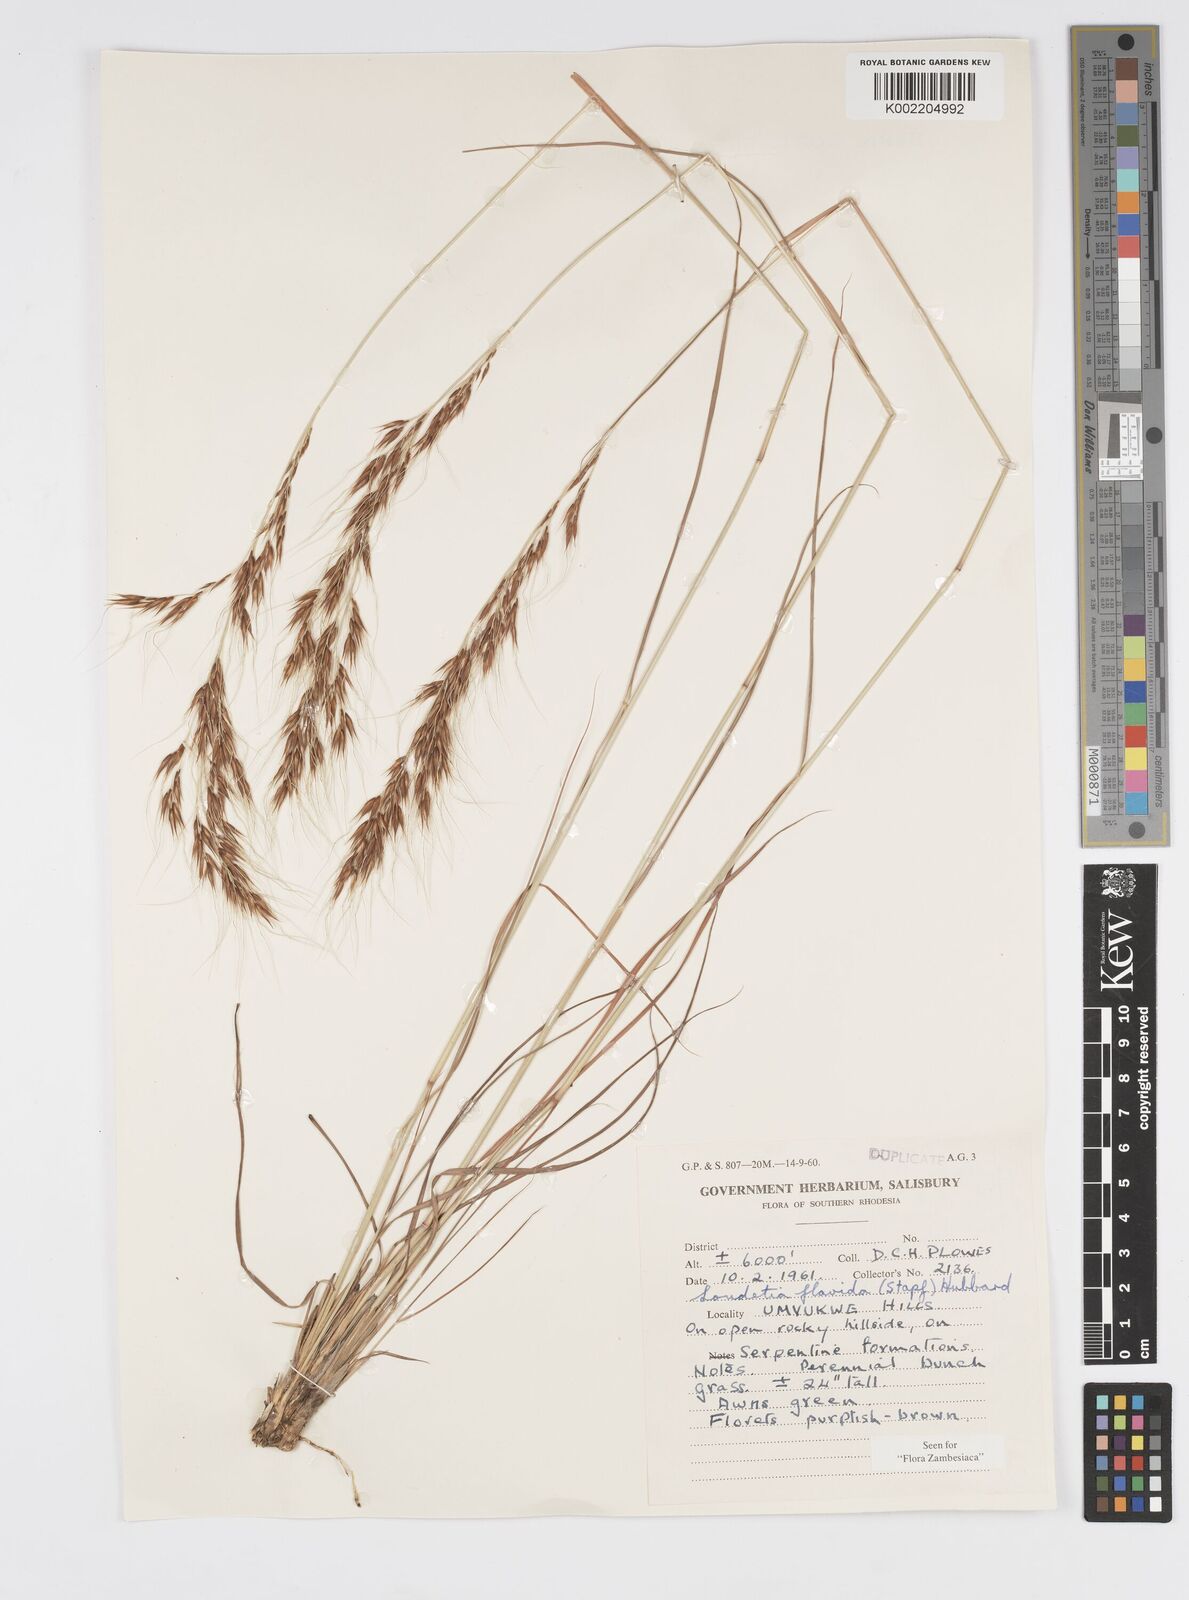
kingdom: Plantae
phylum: Tracheophyta
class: Liliopsida
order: Poales
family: Poaceae
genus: Loudetia
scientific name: Loudetia flavida
